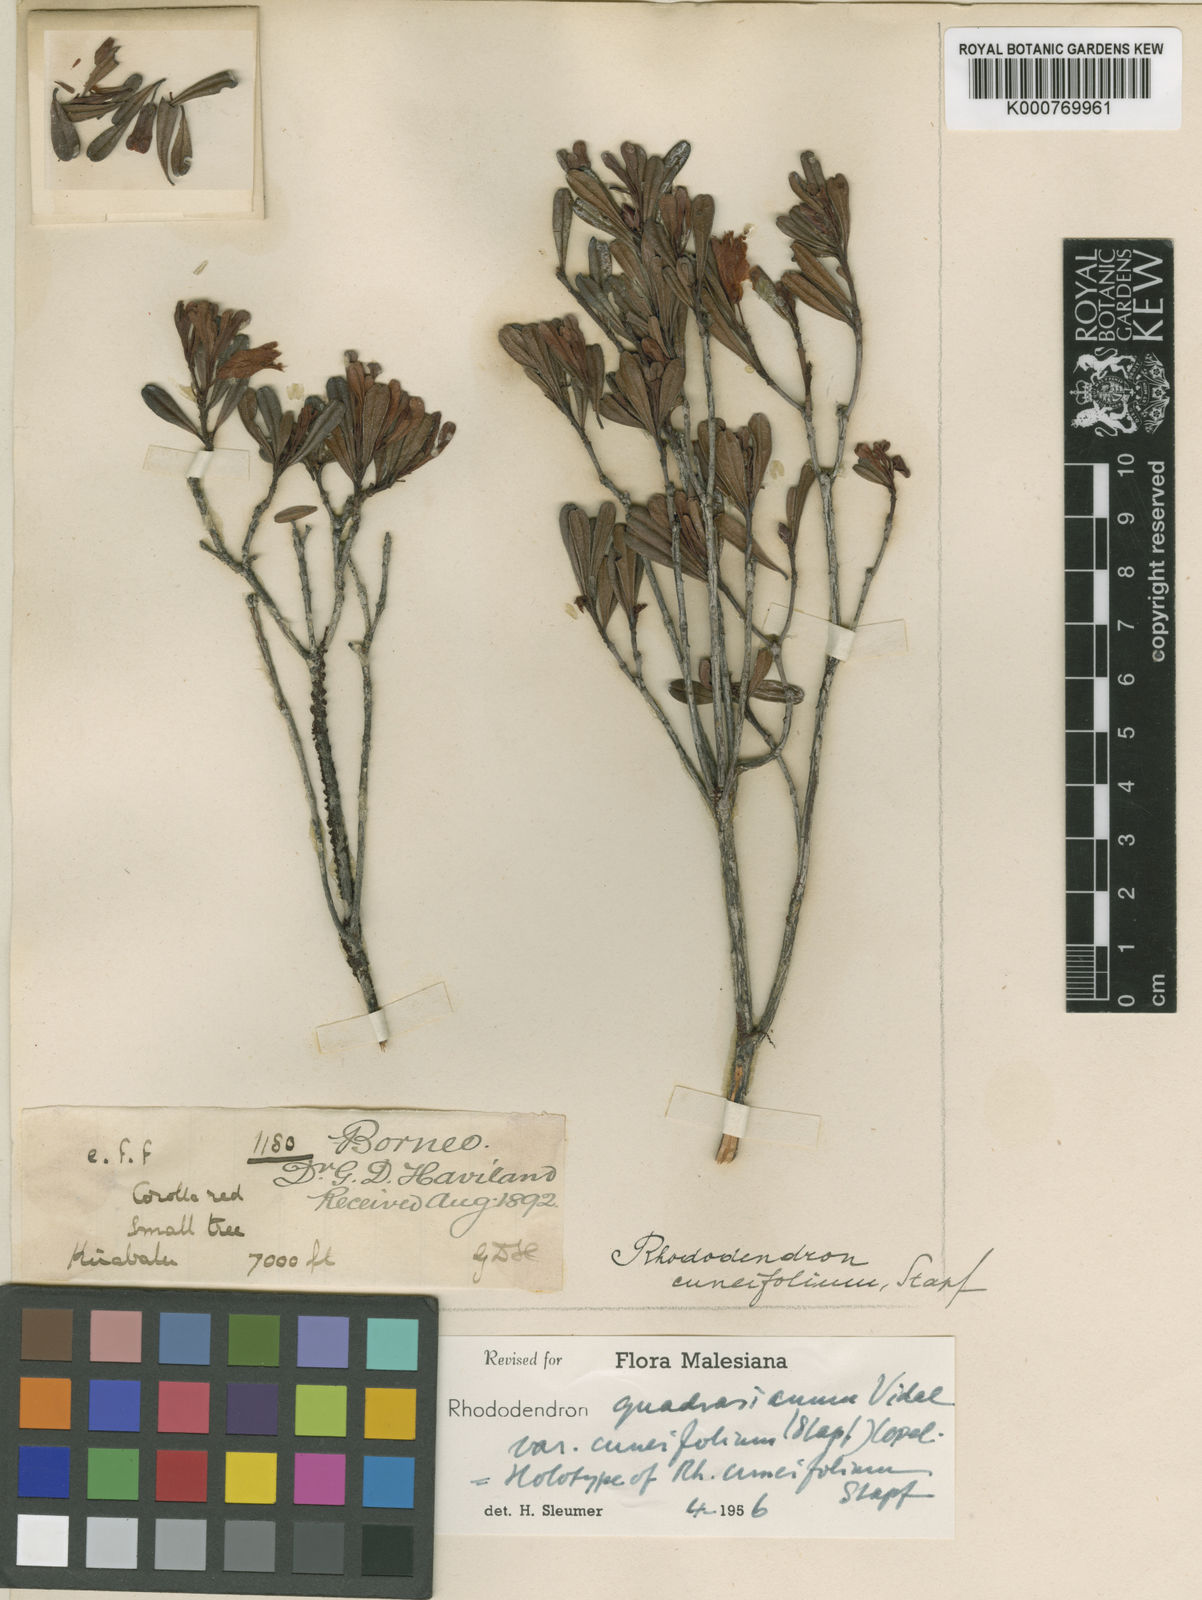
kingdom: Plantae
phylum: Tracheophyta
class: Magnoliopsida
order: Ericales
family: Ericaceae
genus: Rhododendron
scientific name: Rhododendron quadrasianum
